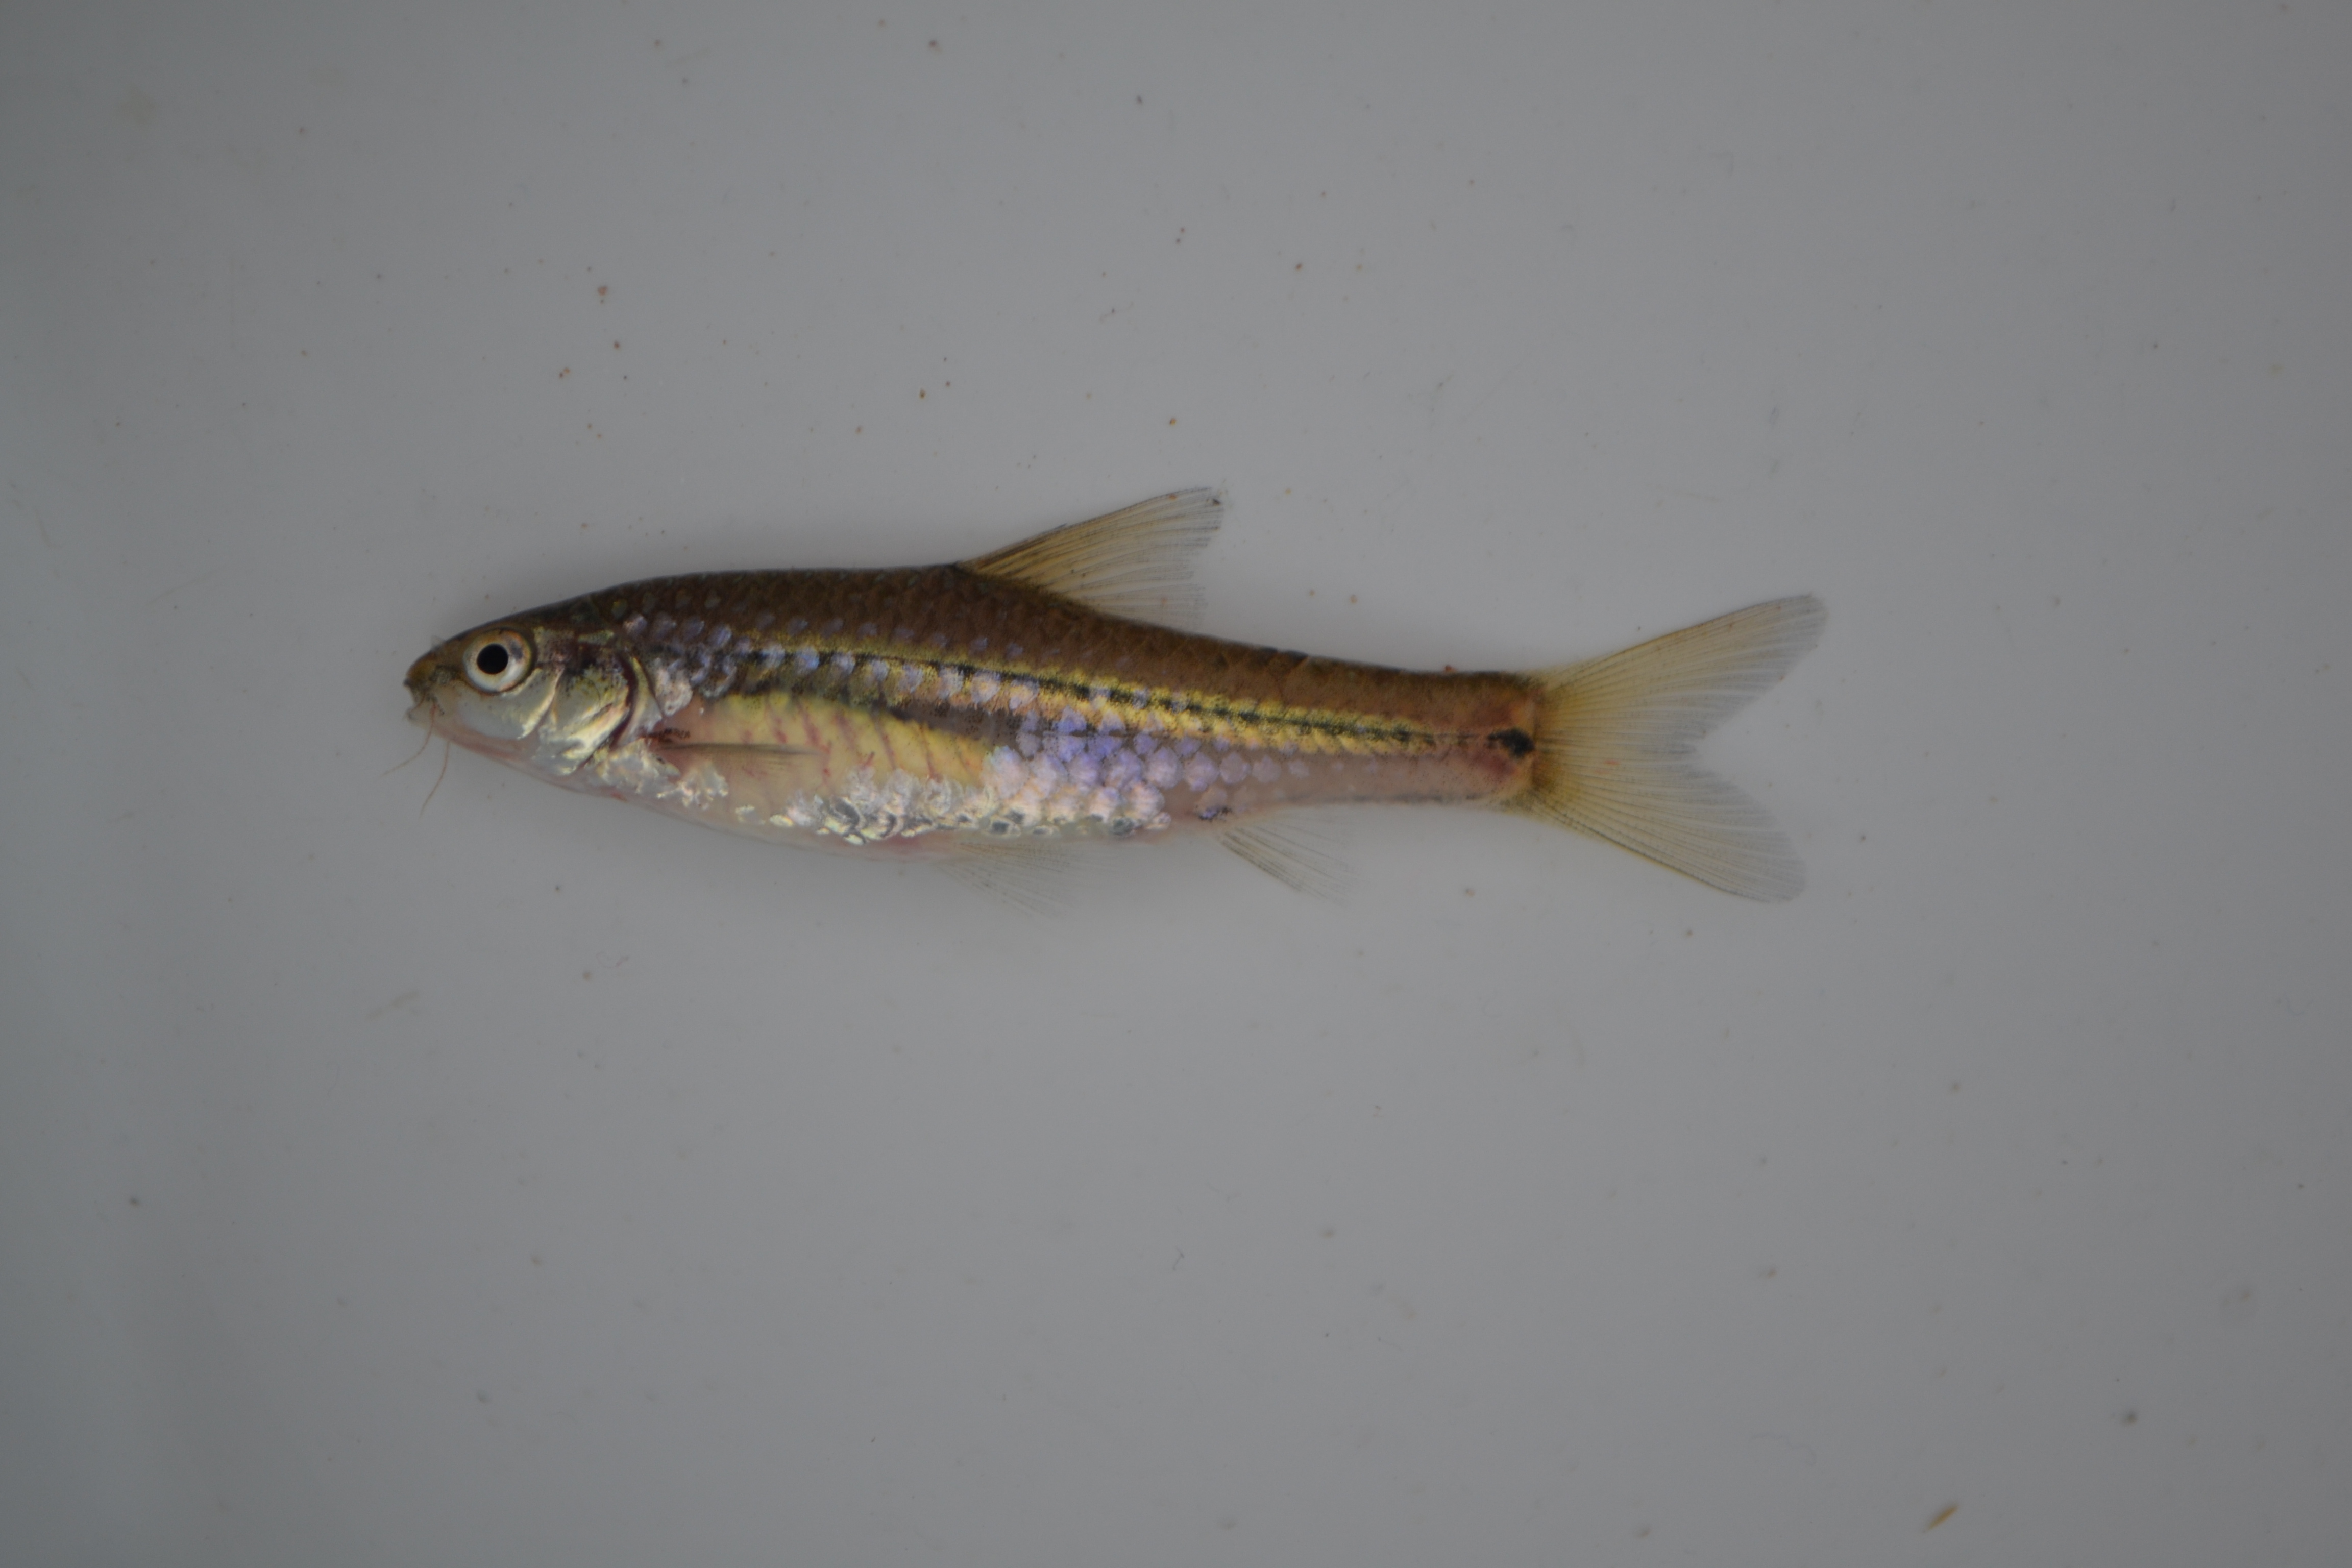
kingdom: Animalia
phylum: Chordata
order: Cypriniformes
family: Cyprinidae
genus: Enteromius
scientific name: Enteromius viviparus
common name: Bowstripe barb
